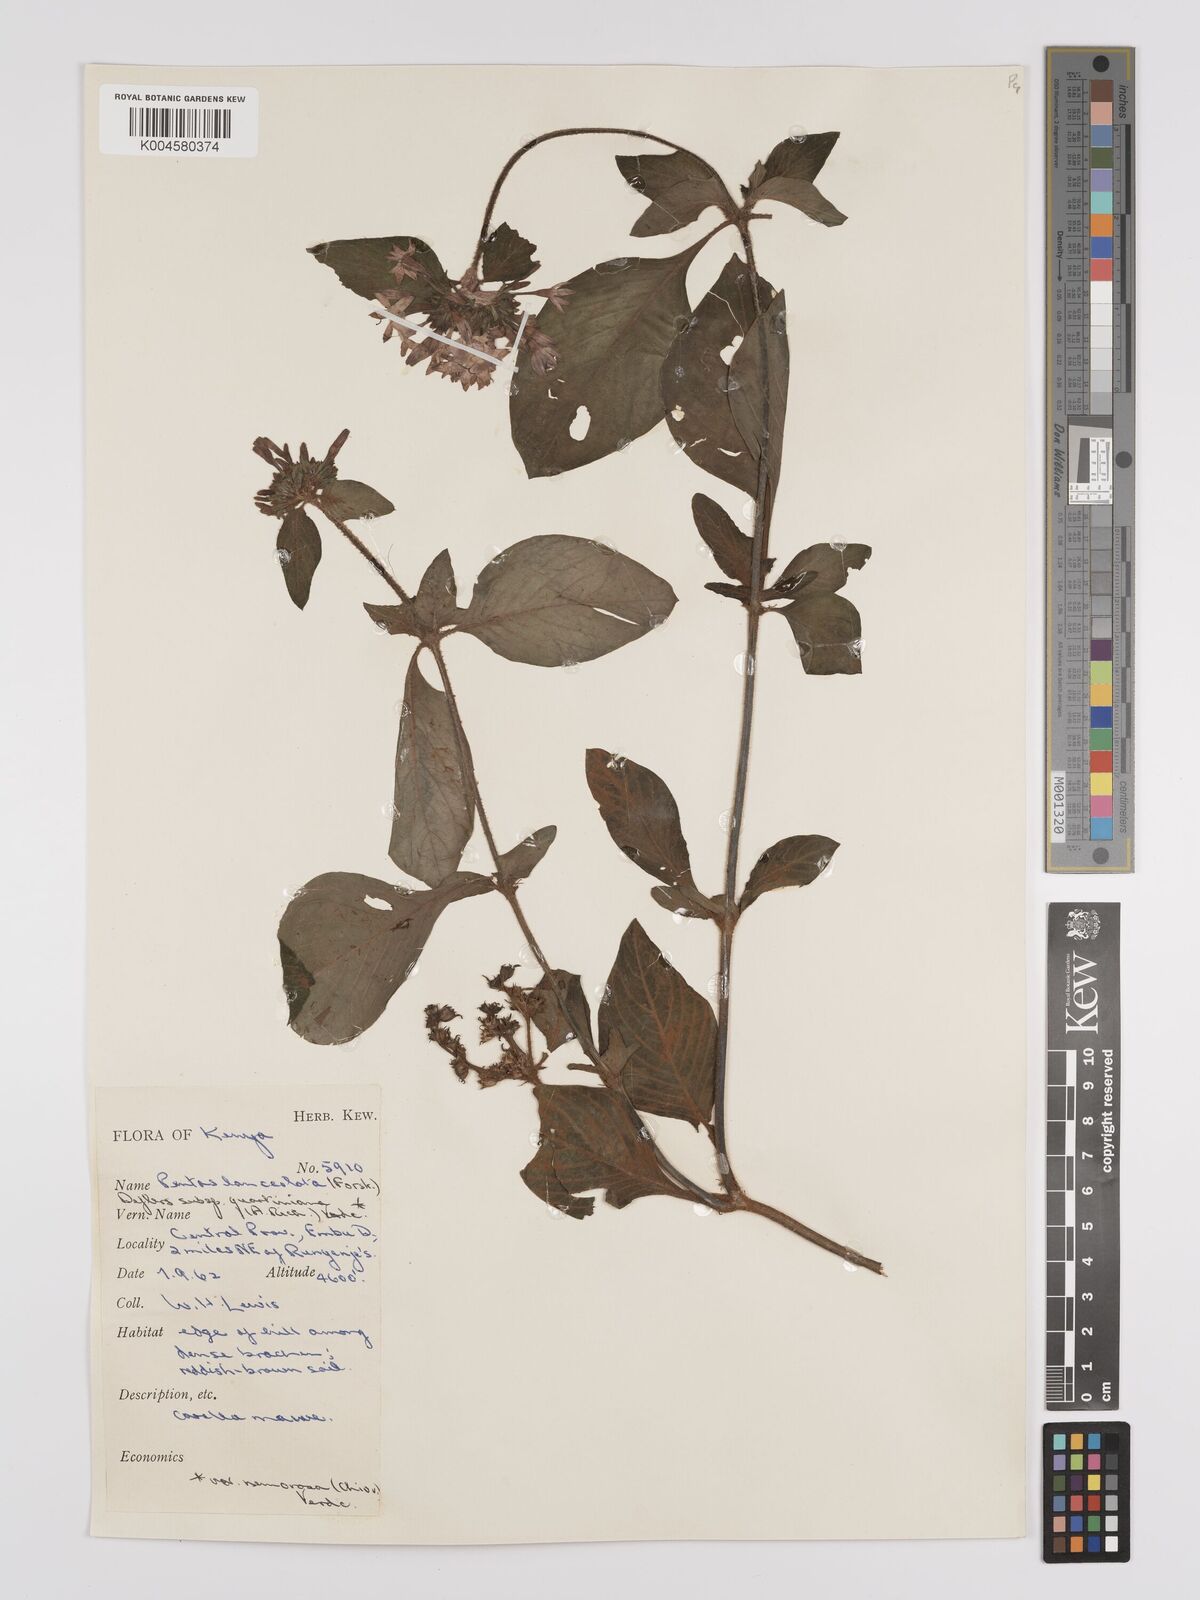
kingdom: Plantae
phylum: Tracheophyta
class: Magnoliopsida
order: Gentianales
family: Rubiaceae
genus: Pentas
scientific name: Pentas lanceolata
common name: Egyptian starcluster
